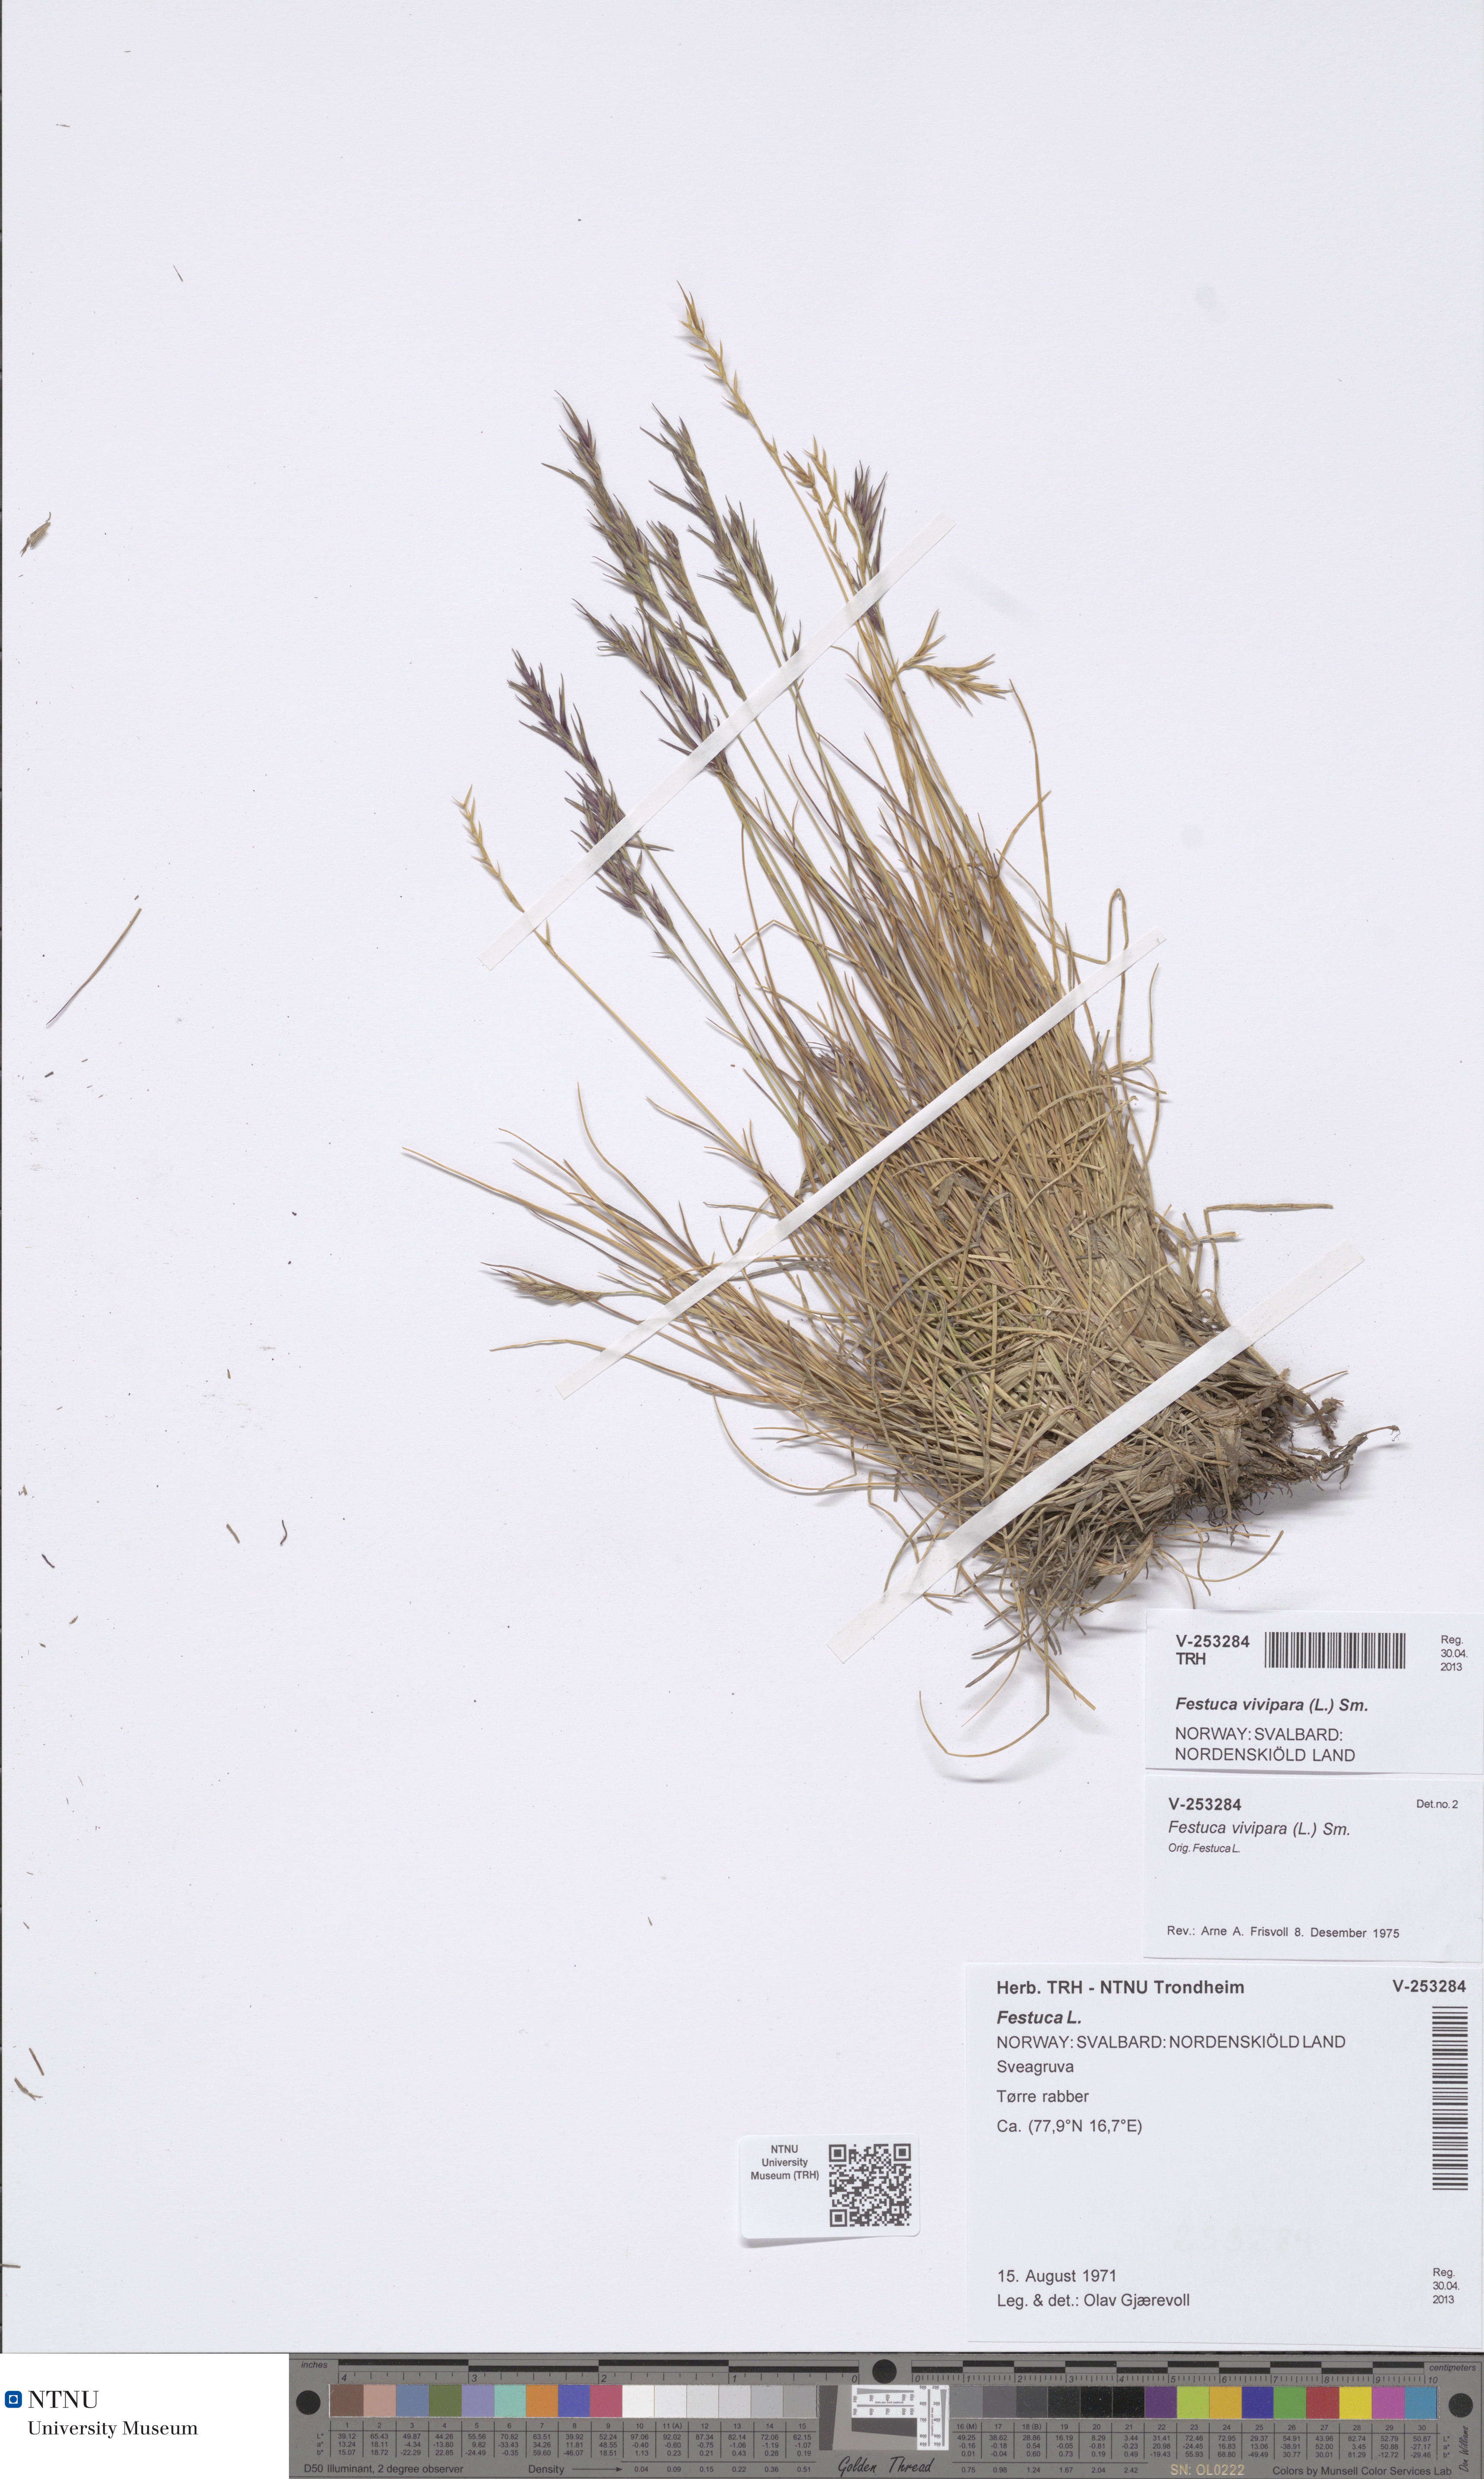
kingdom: Plantae
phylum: Tracheophyta
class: Liliopsida
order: Poales
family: Poaceae
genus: Festuca
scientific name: Festuca viviparoidea
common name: Northern fescue
